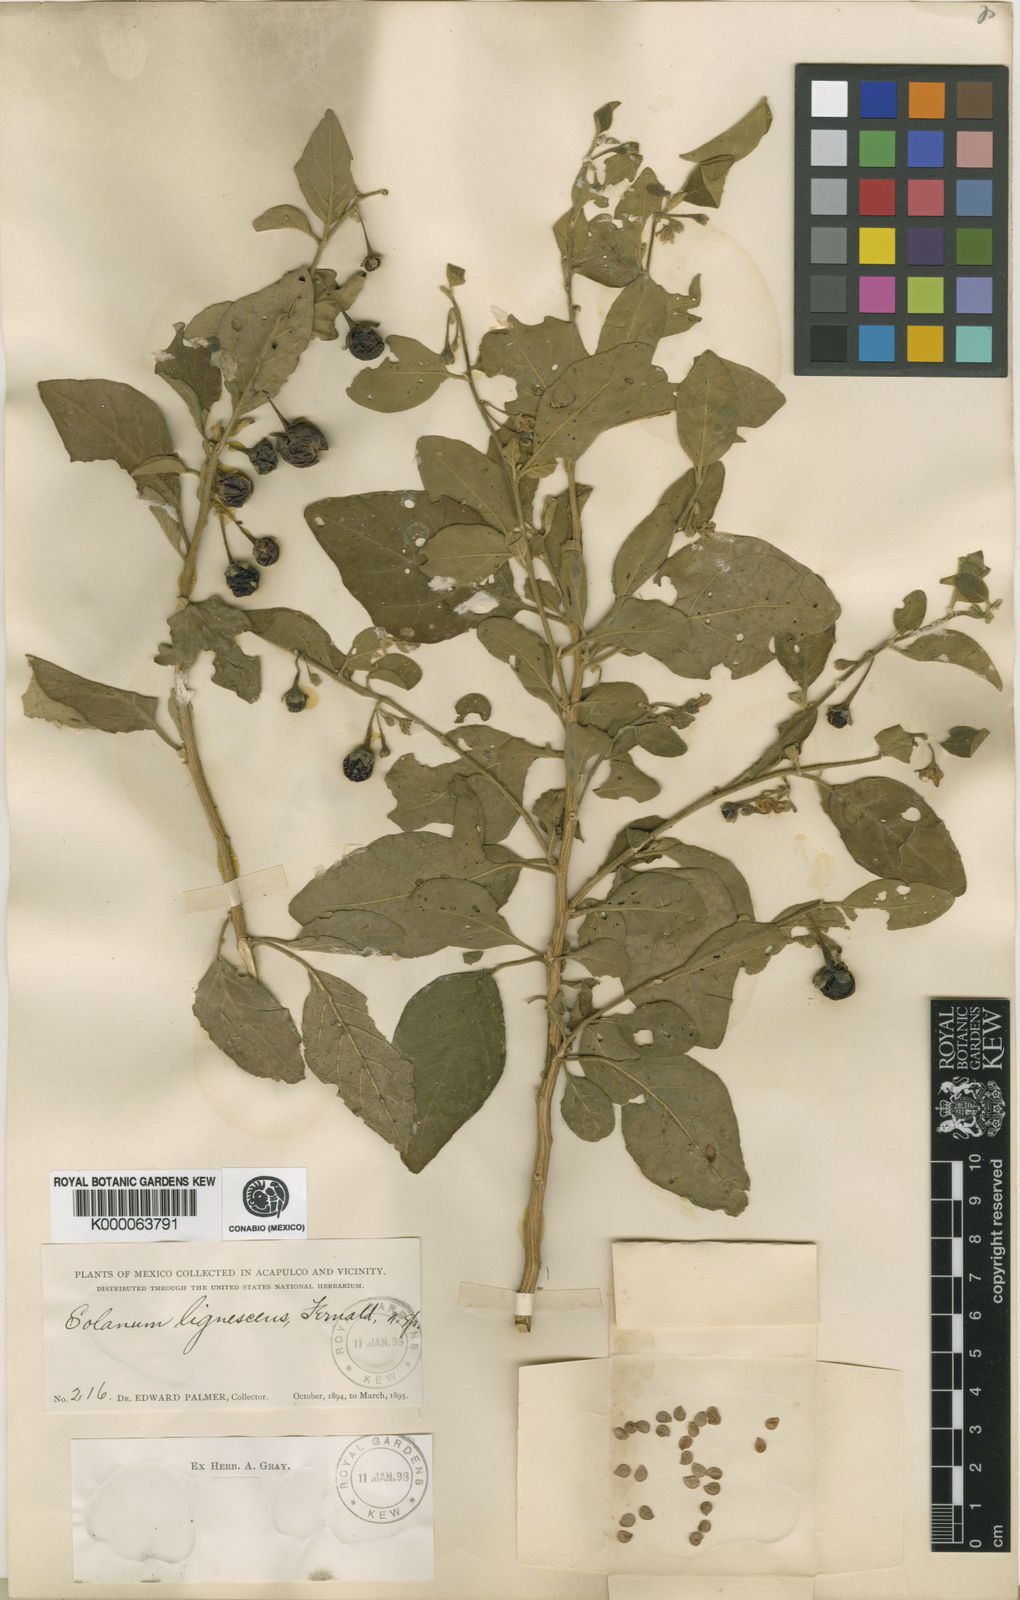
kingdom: Plantae
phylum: Tracheophyta
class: Magnoliopsida
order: Solanales
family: Solanaceae
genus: Solanum
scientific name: Solanum lignescens
